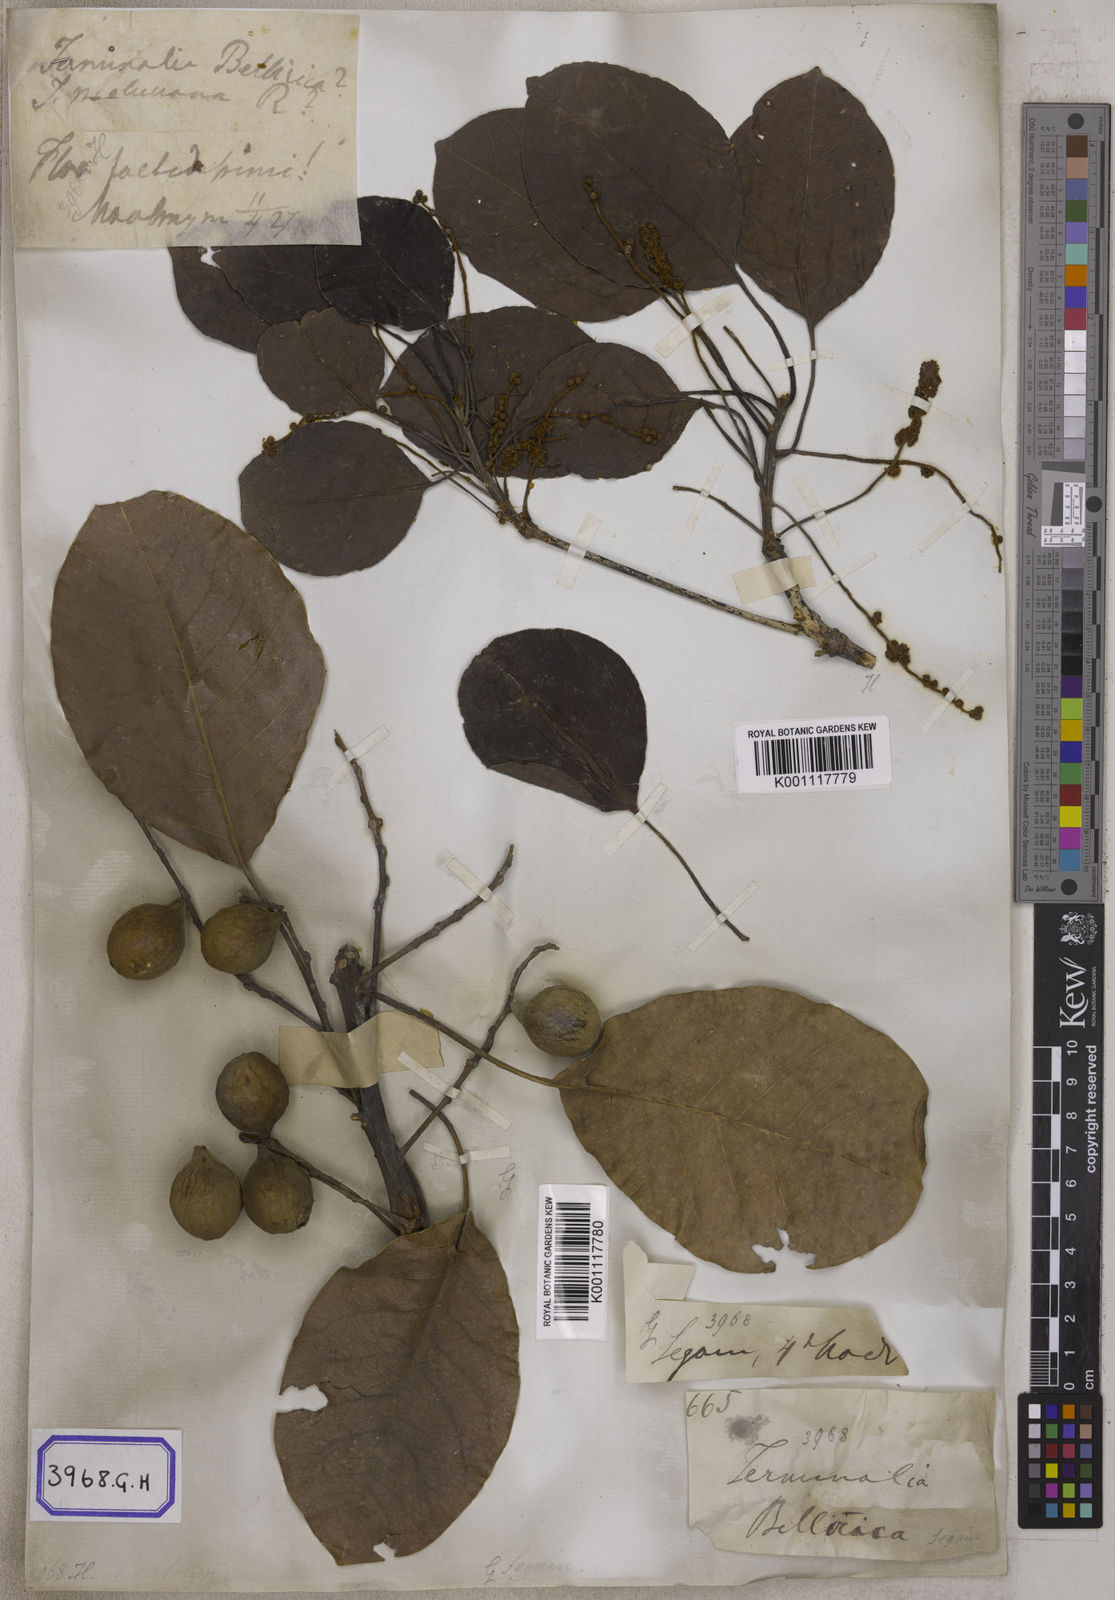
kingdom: Plantae
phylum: Tracheophyta
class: Magnoliopsida
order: Myrtales
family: Combretaceae
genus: Terminalia
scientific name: Terminalia bellirica
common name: Beleric myrobalan
